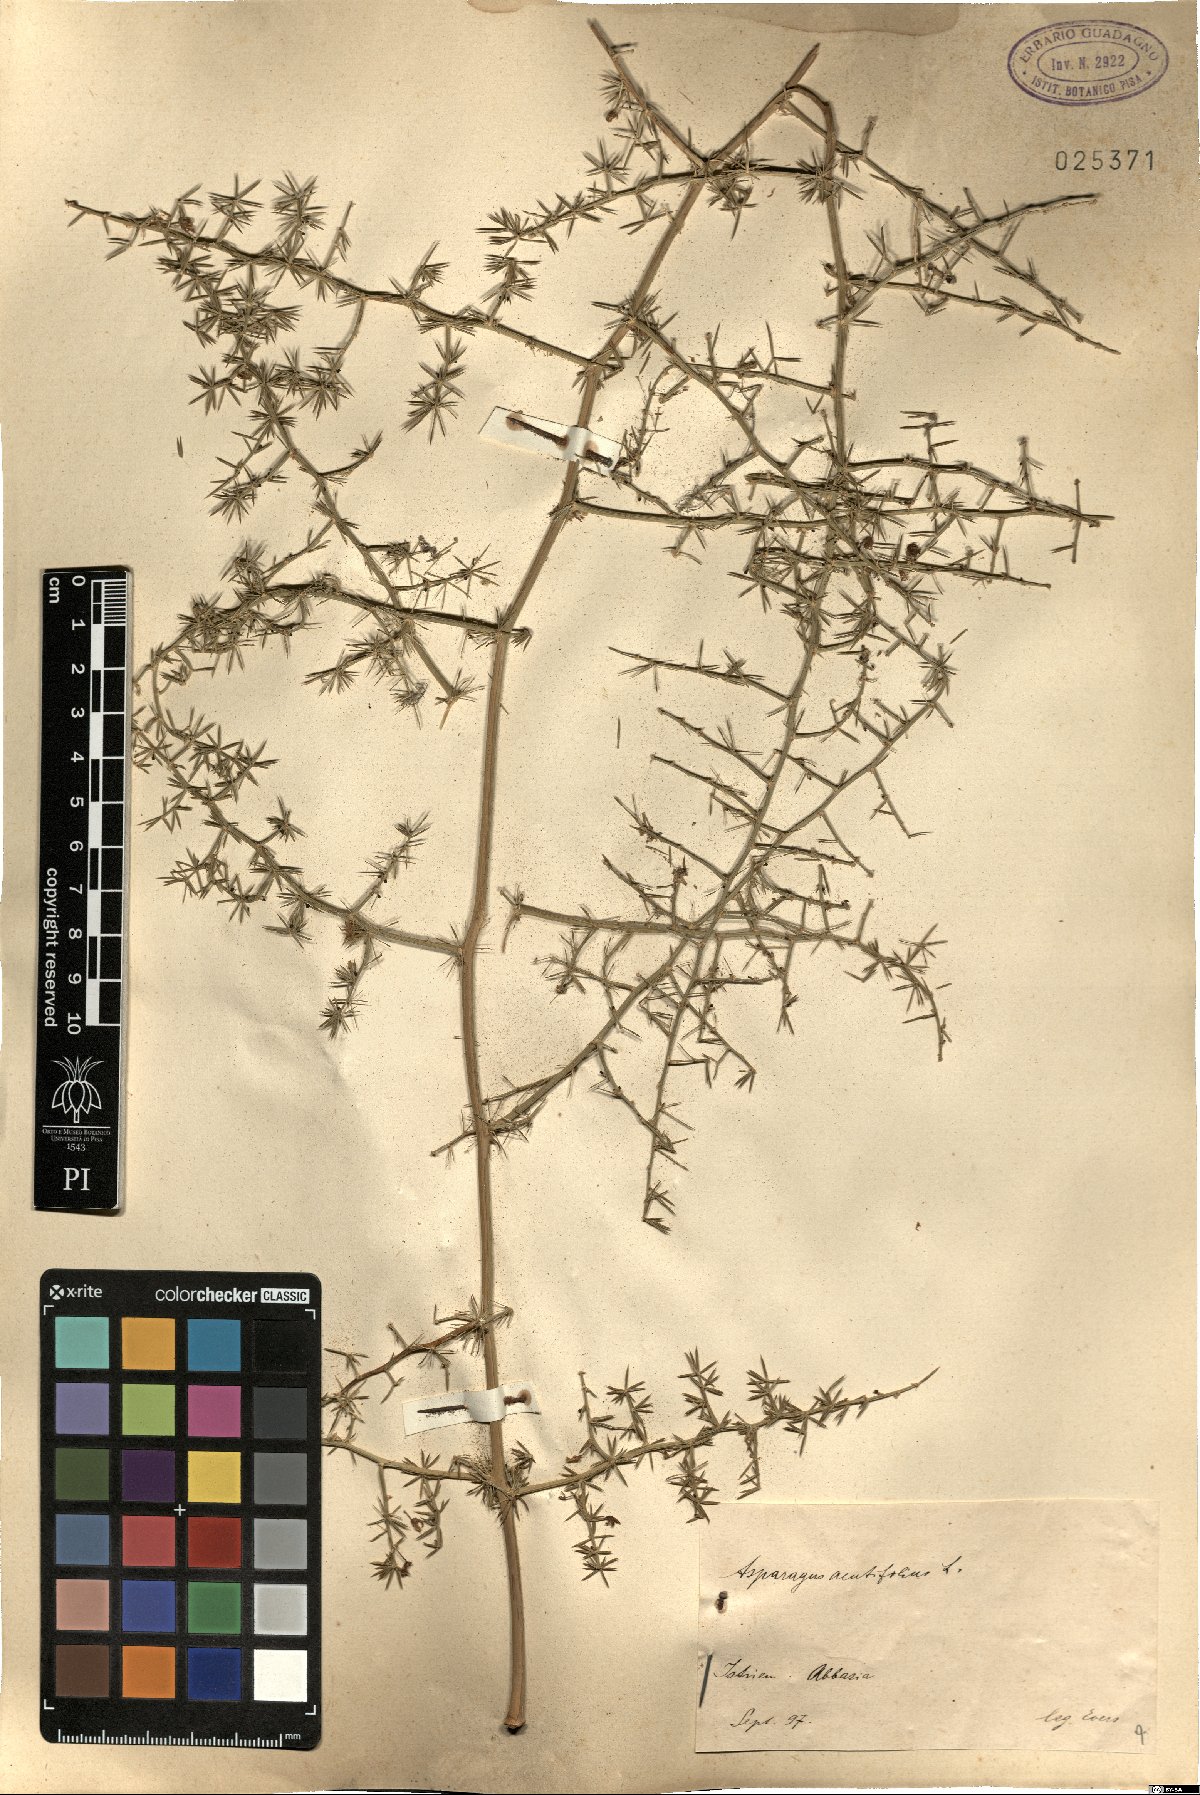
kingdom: Plantae
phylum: Tracheophyta
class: Liliopsida
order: Asparagales
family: Asparagaceae
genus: Asparagus
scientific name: Asparagus acutifolius
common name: Wild asparagus
